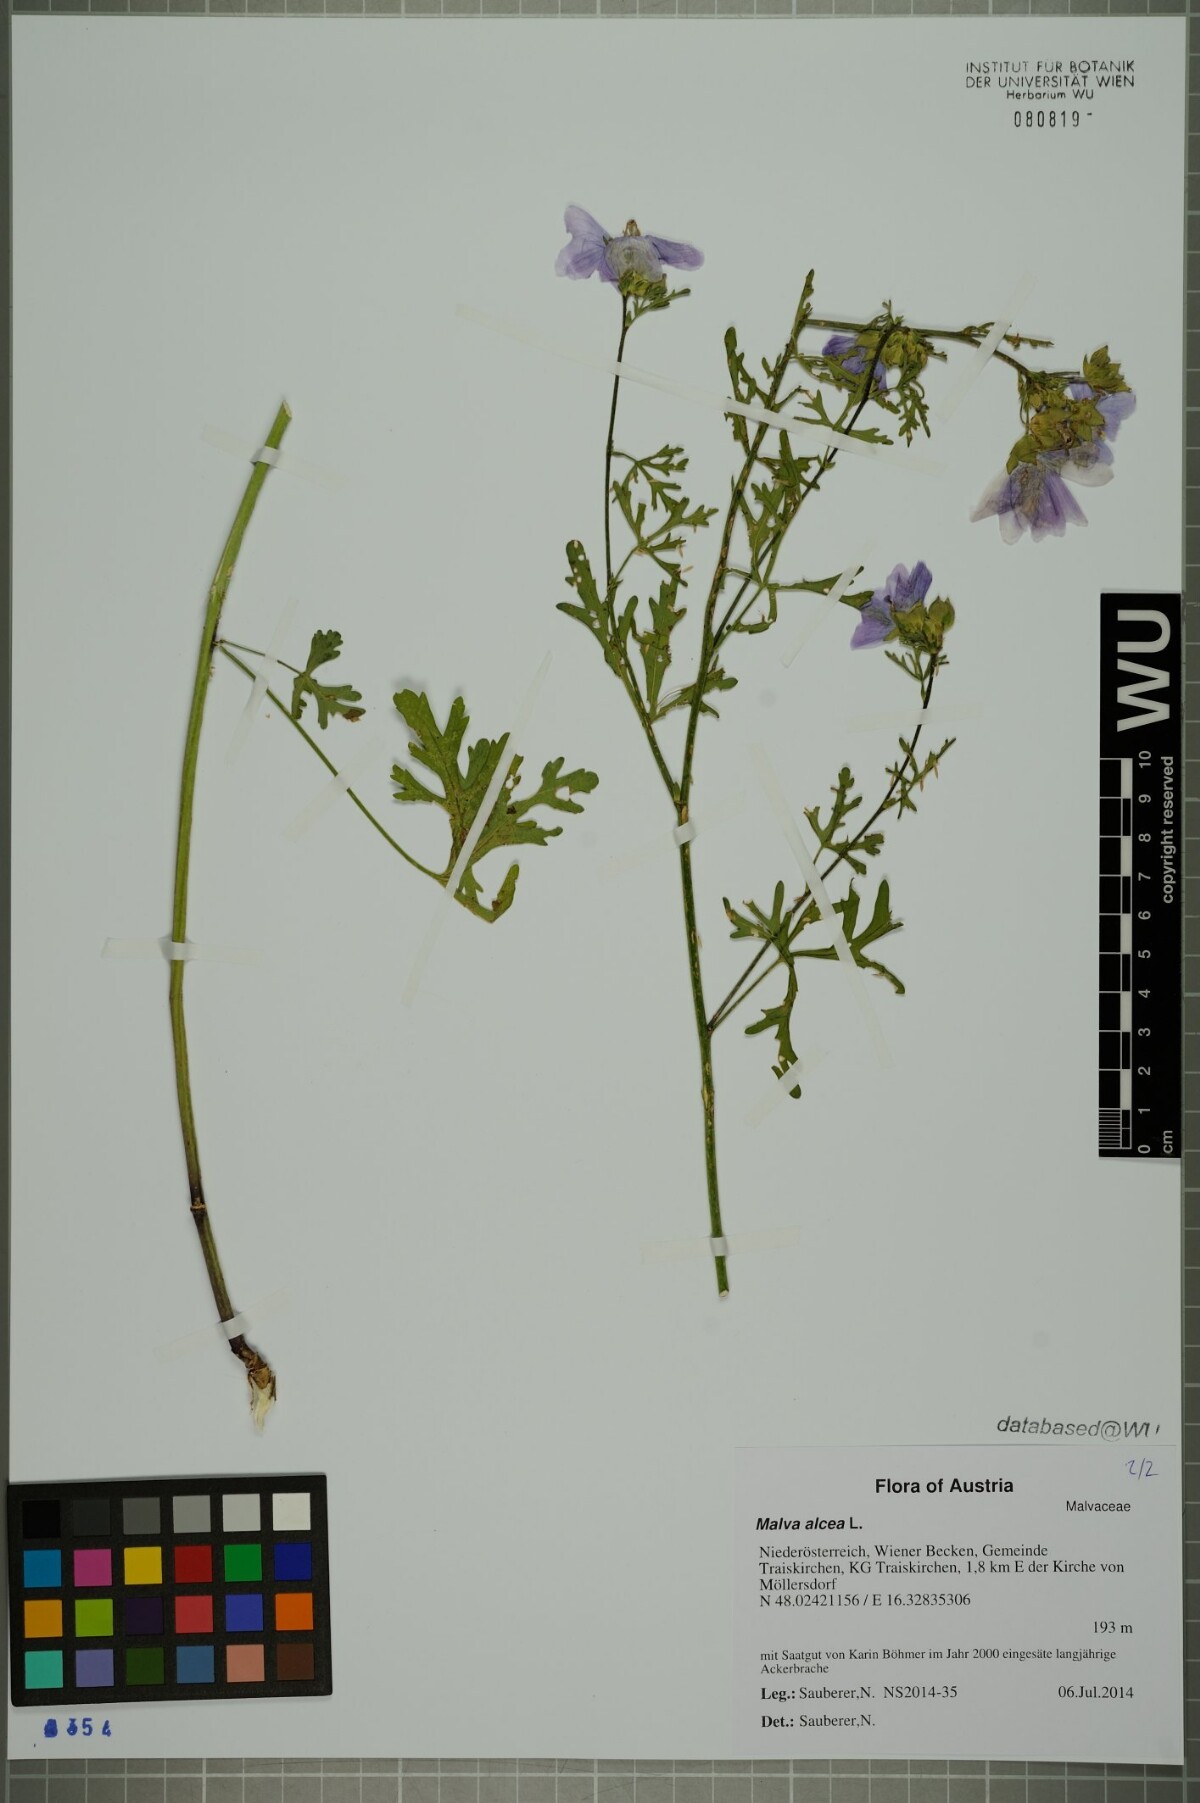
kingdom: Plantae
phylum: Tracheophyta
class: Magnoliopsida
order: Malvales
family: Malvaceae
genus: Malva
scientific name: Malva alcea
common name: Greater musk-mallow
